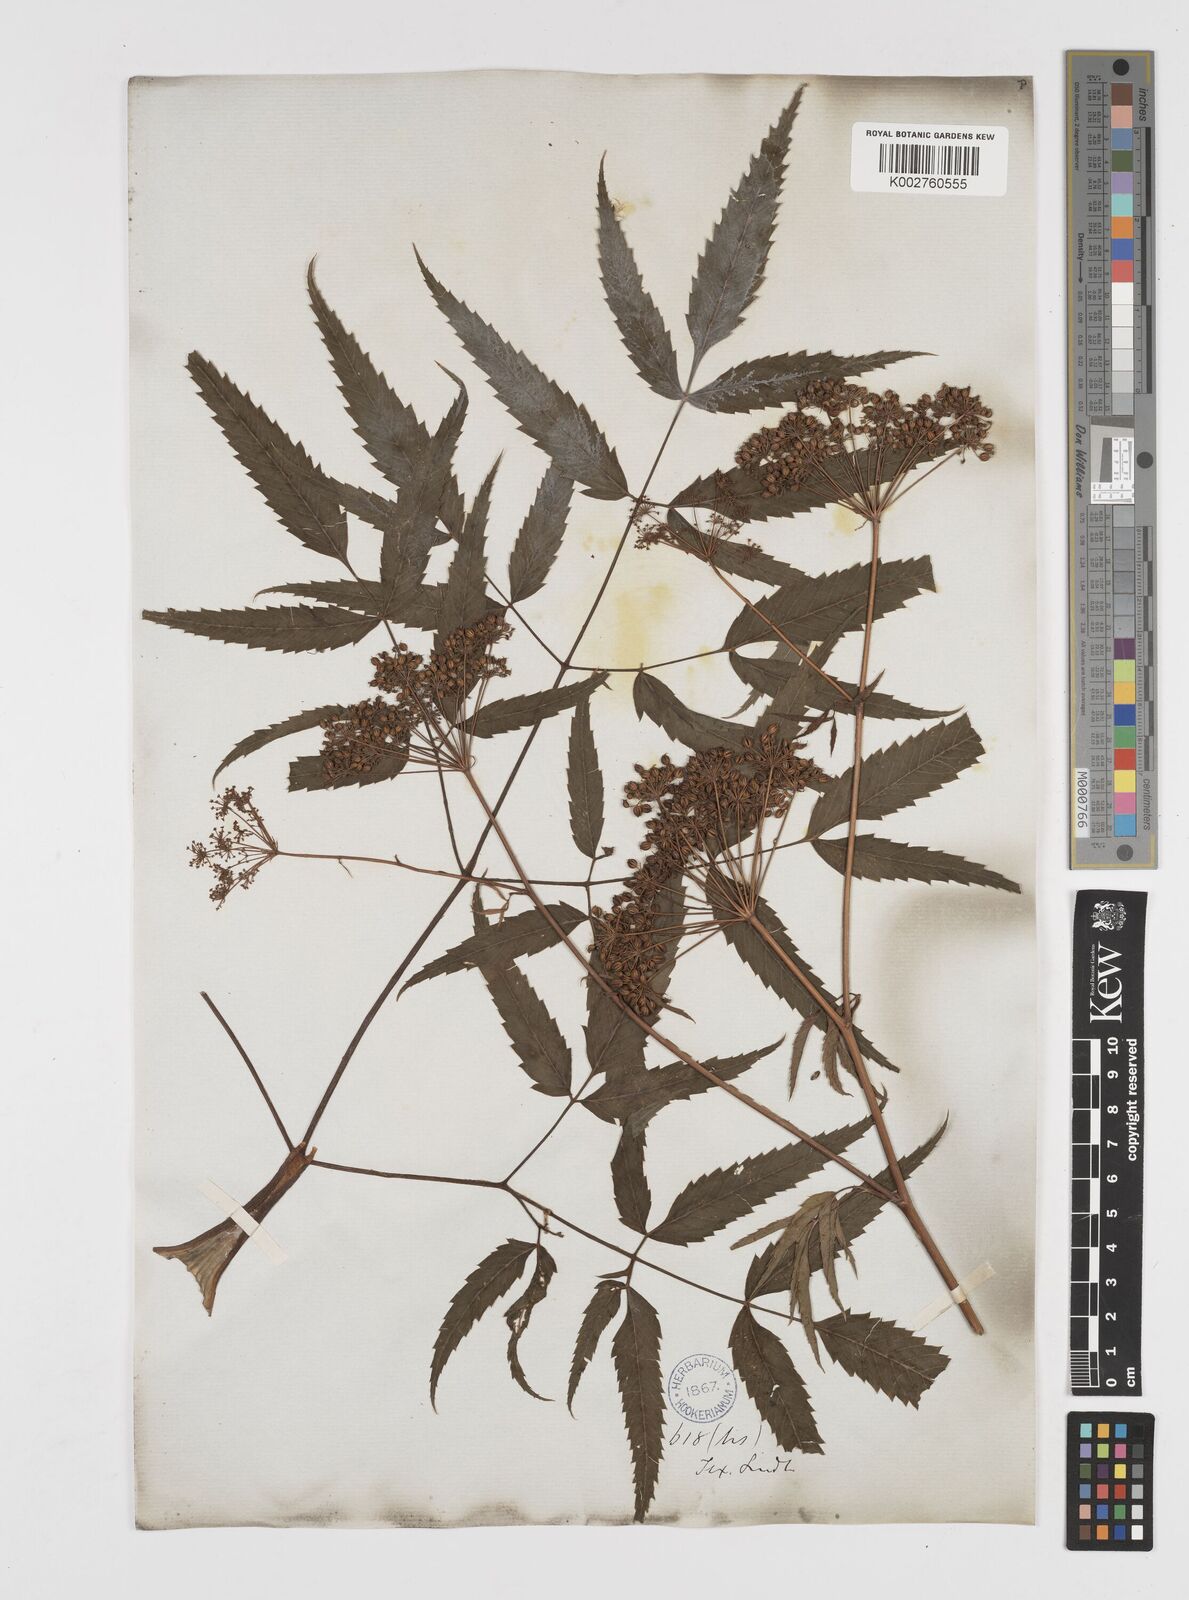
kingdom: Plantae
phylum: Tracheophyta
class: Magnoliopsida
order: Apiales
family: Apiaceae
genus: Cicuta
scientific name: Cicuta douglasii
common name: Western water-hemlock
